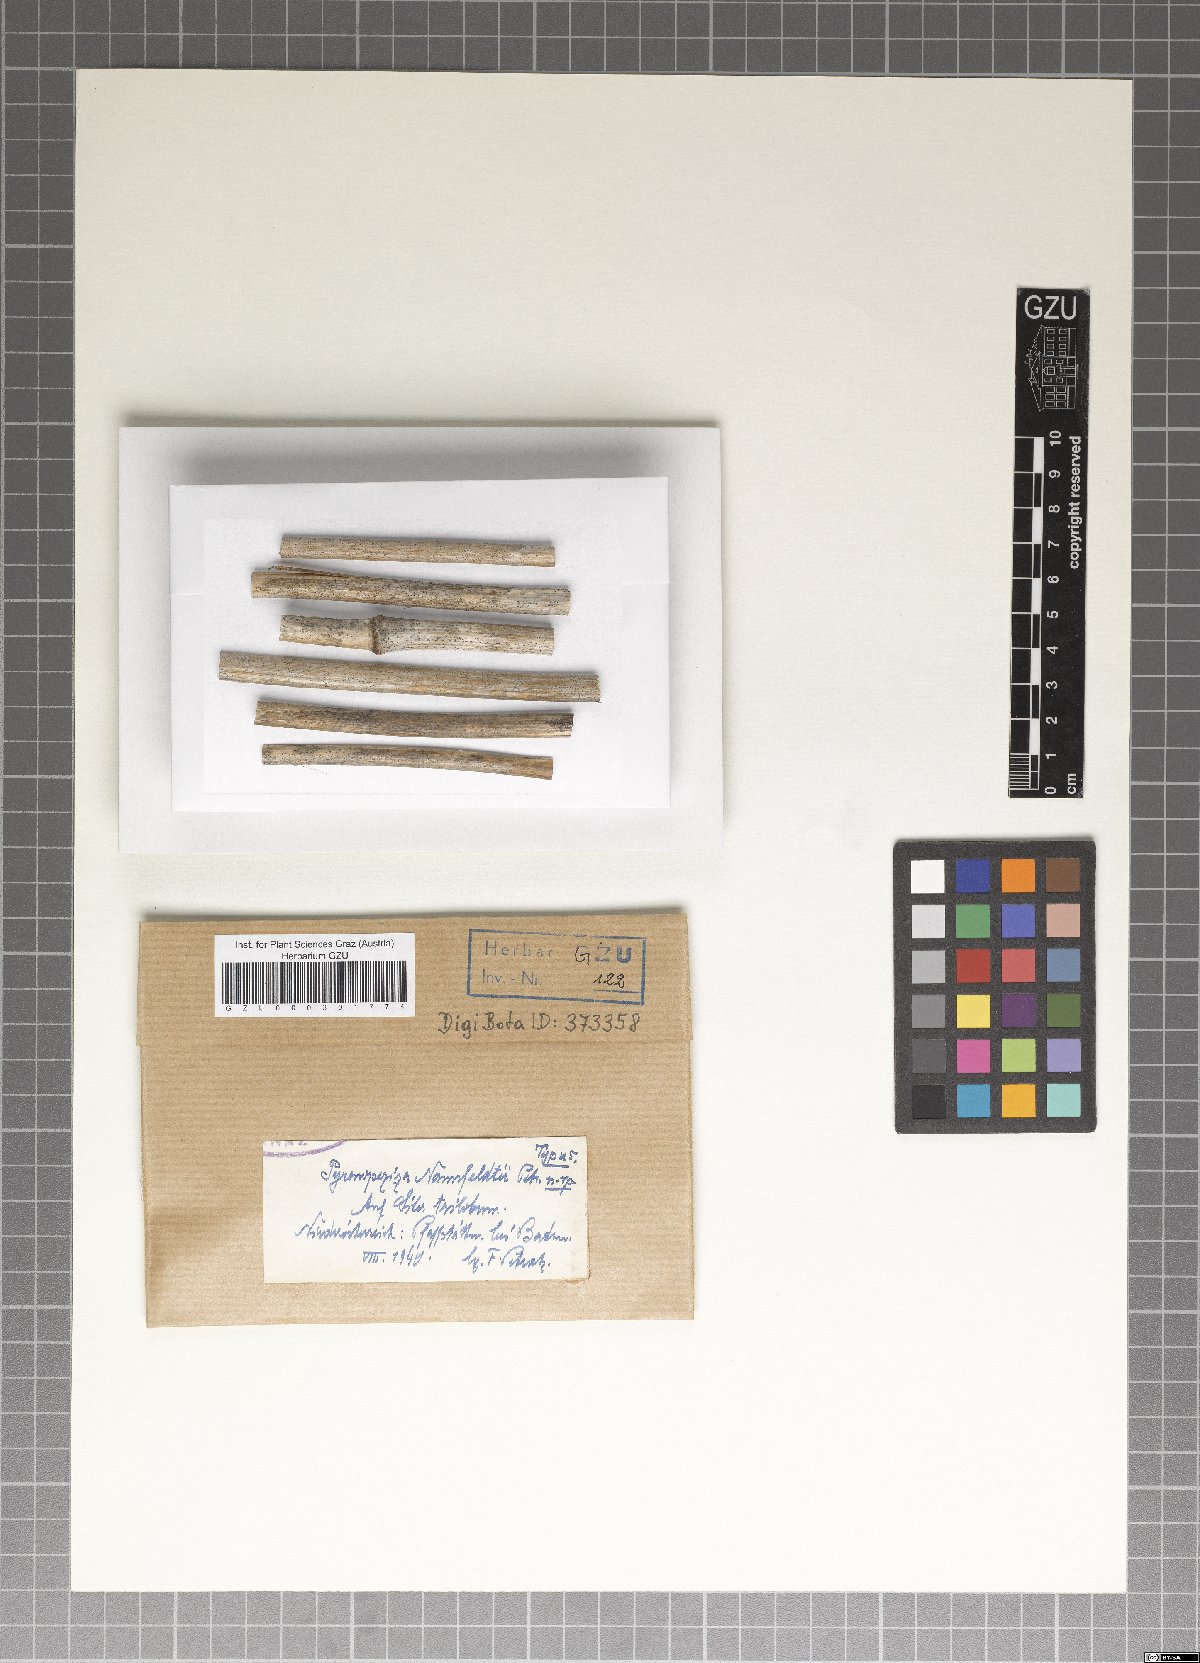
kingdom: Fungi
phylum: Ascomycota
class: Leotiomycetes
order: Helotiales
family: Mollisiaceae
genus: Mollisia
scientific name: Mollisia nannfeldtii
